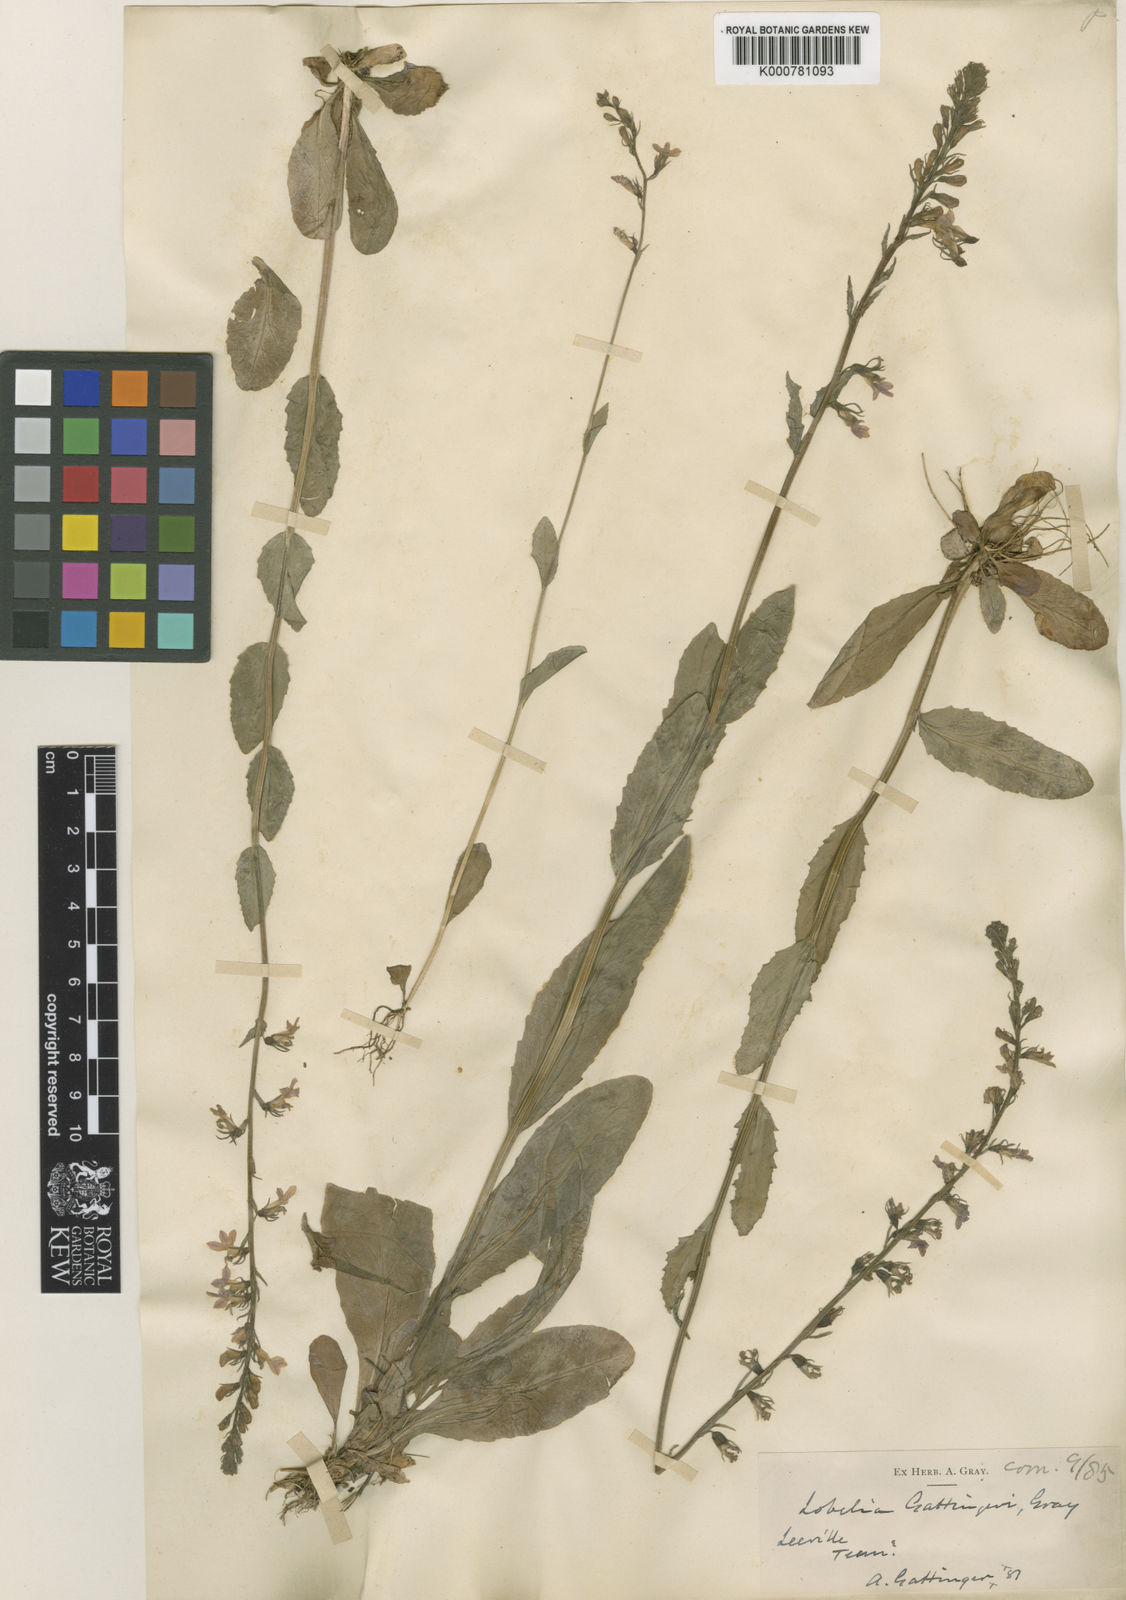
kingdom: Plantae
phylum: Tracheophyta
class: Magnoliopsida
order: Asterales
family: Campanulaceae
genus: Lobelia
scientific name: Lobelia gattingeri
